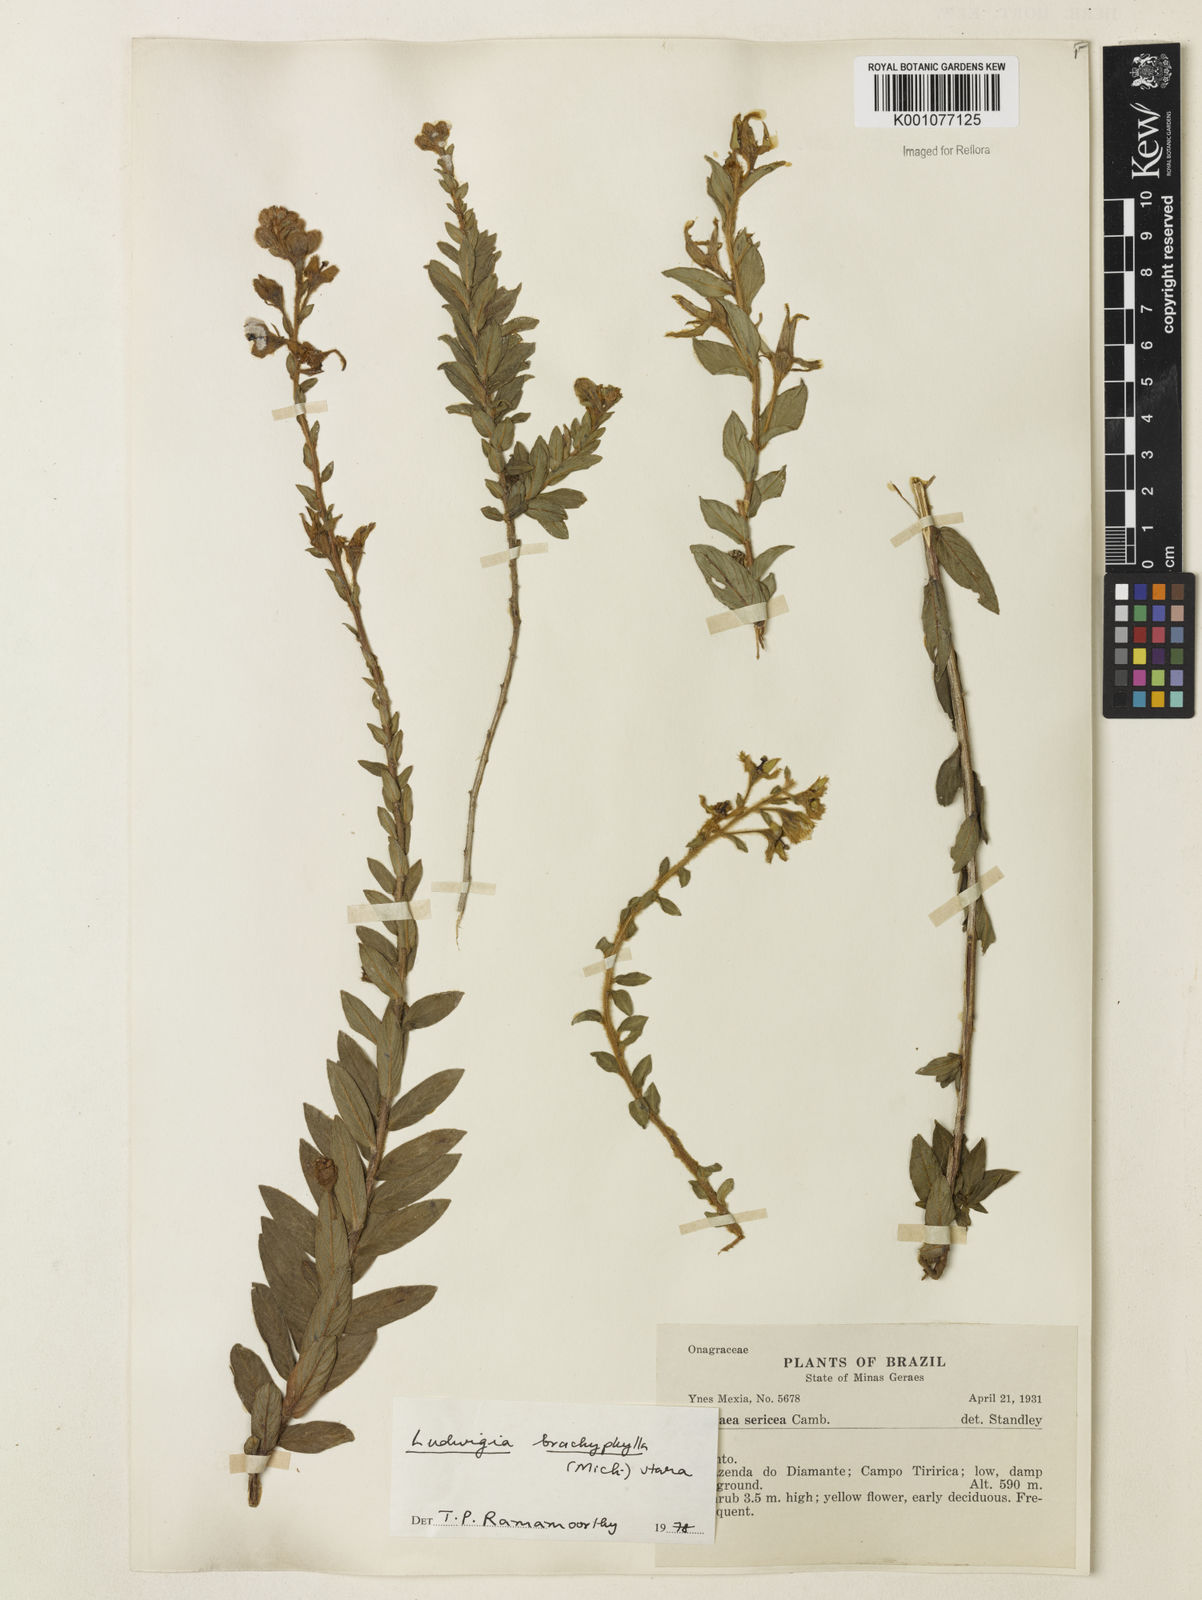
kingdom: Plantae
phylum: Tracheophyta
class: Magnoliopsida
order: Myrtales
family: Onagraceae
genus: Ludwigia
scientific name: Ludwigia brachyphylla
